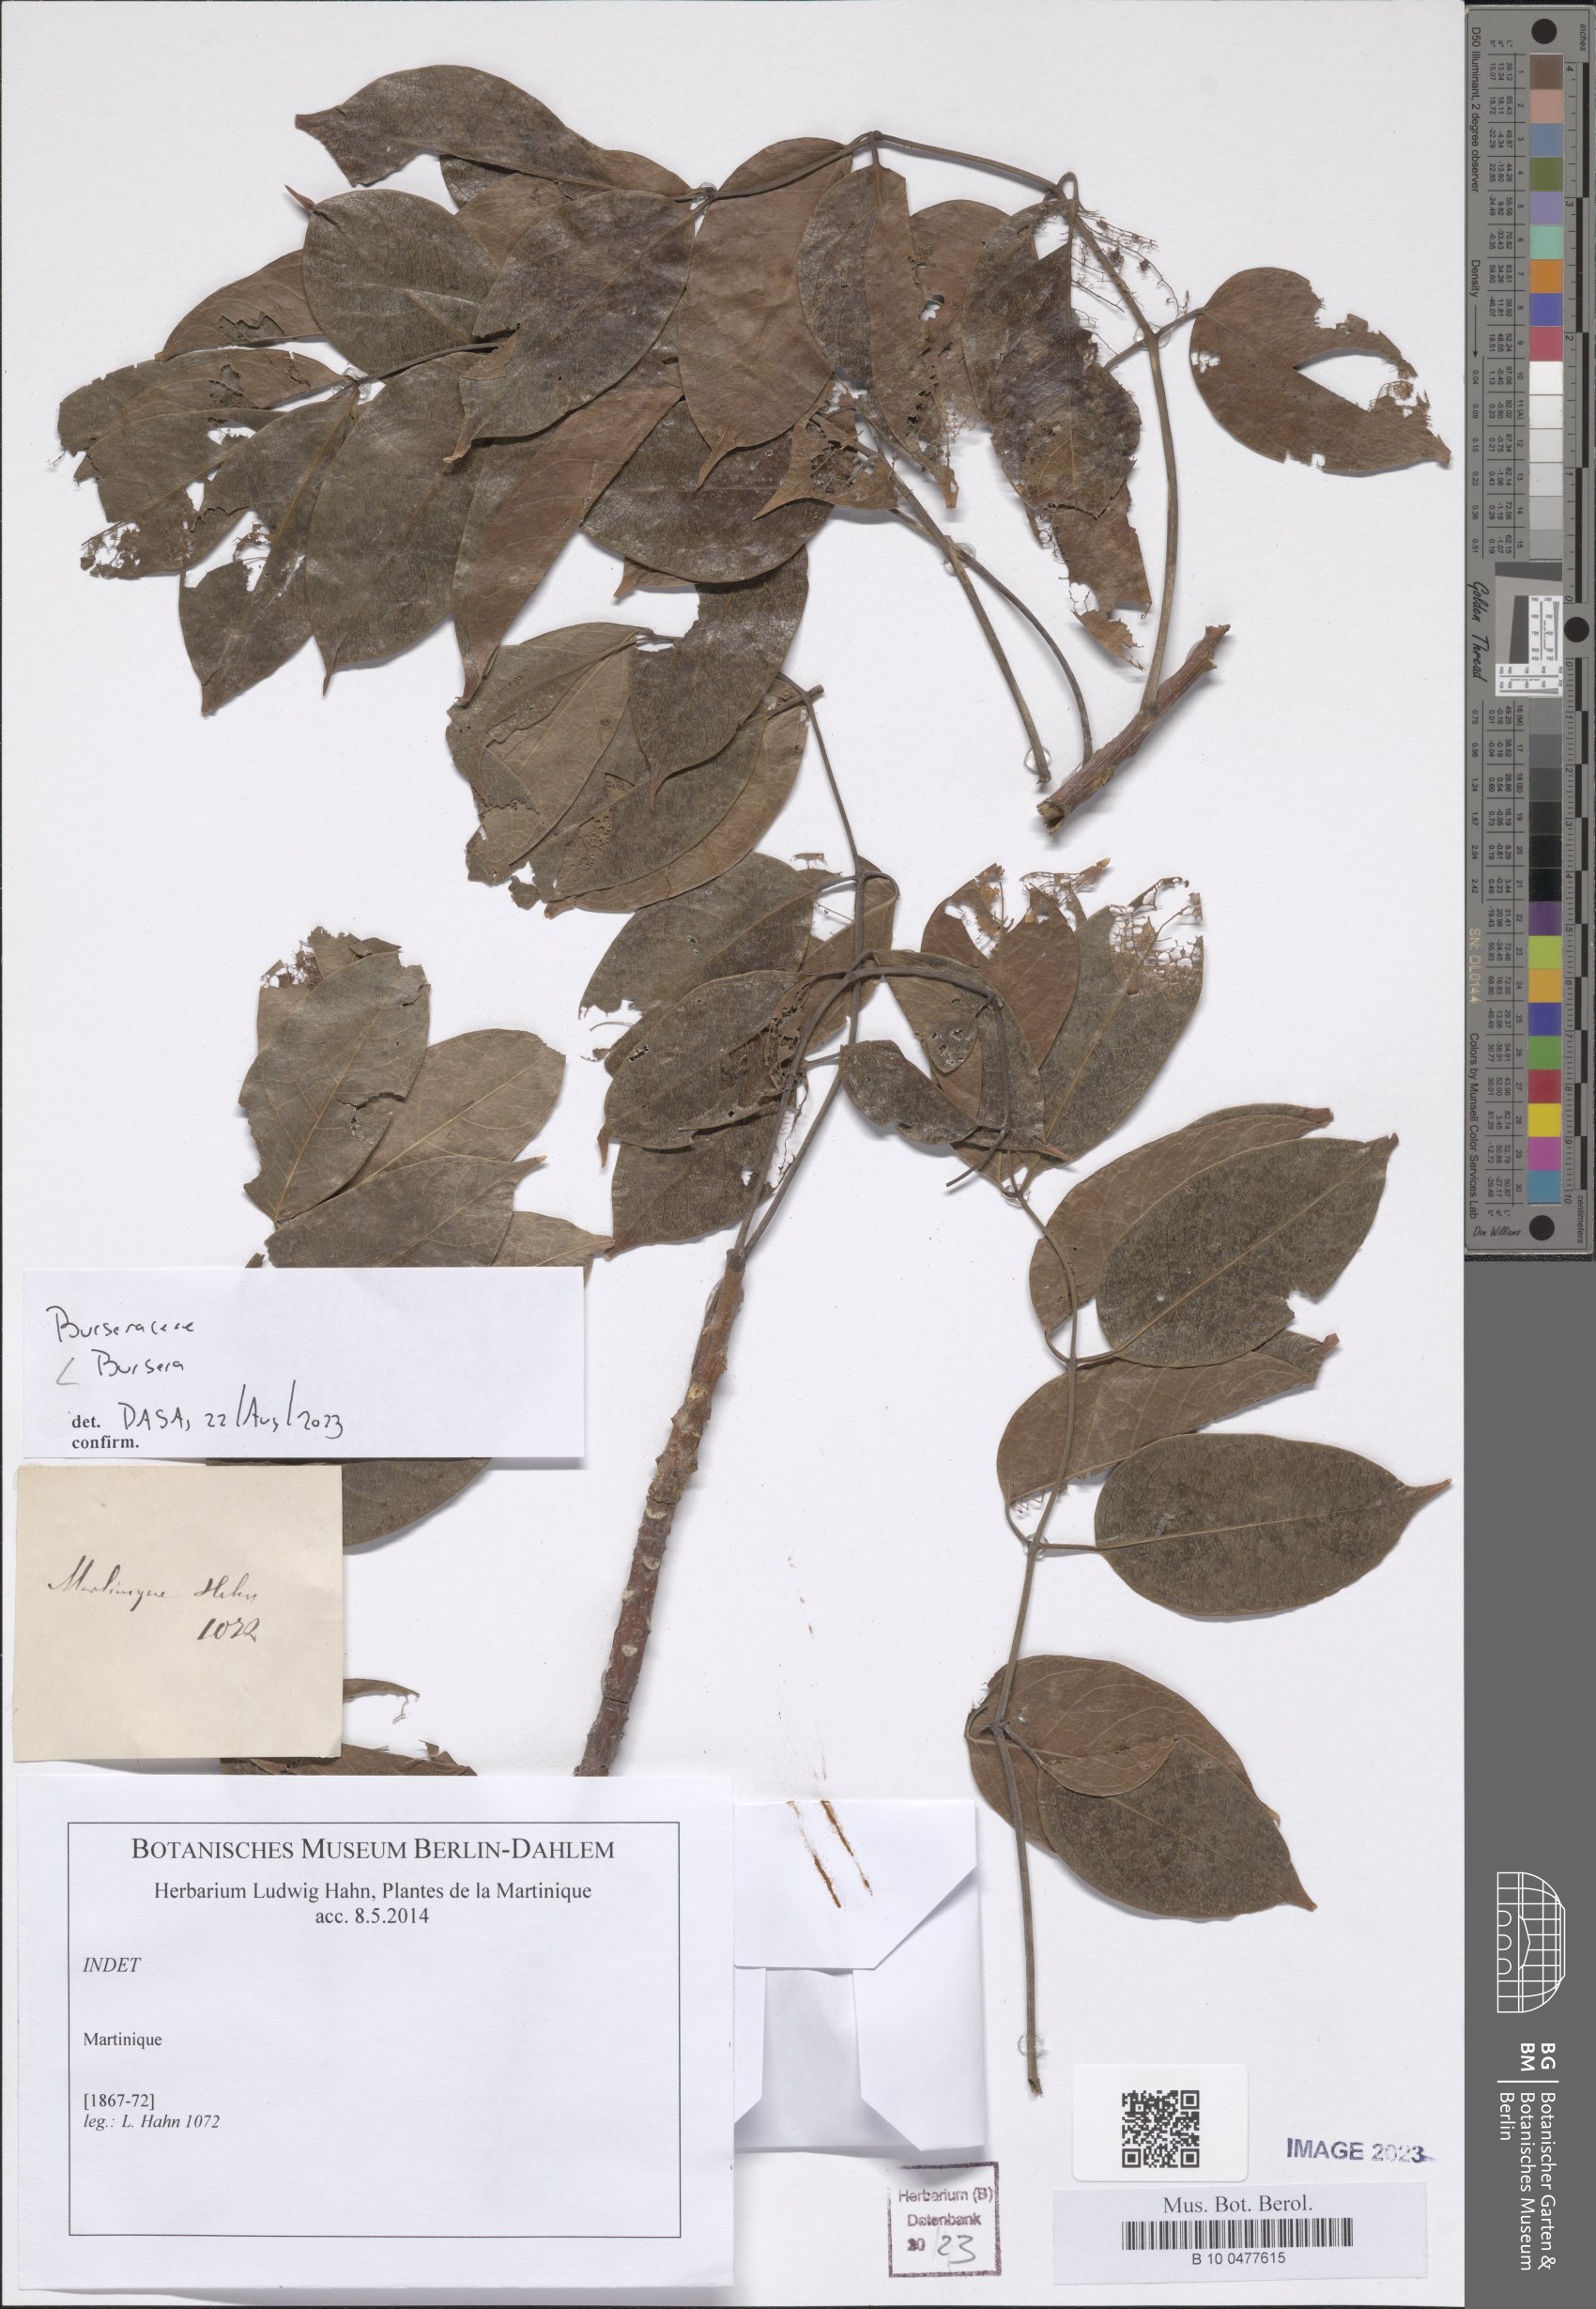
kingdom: Plantae
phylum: Tracheophyta
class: Magnoliopsida
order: Sapindales
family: Burseraceae
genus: Bursera
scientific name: Bursera
